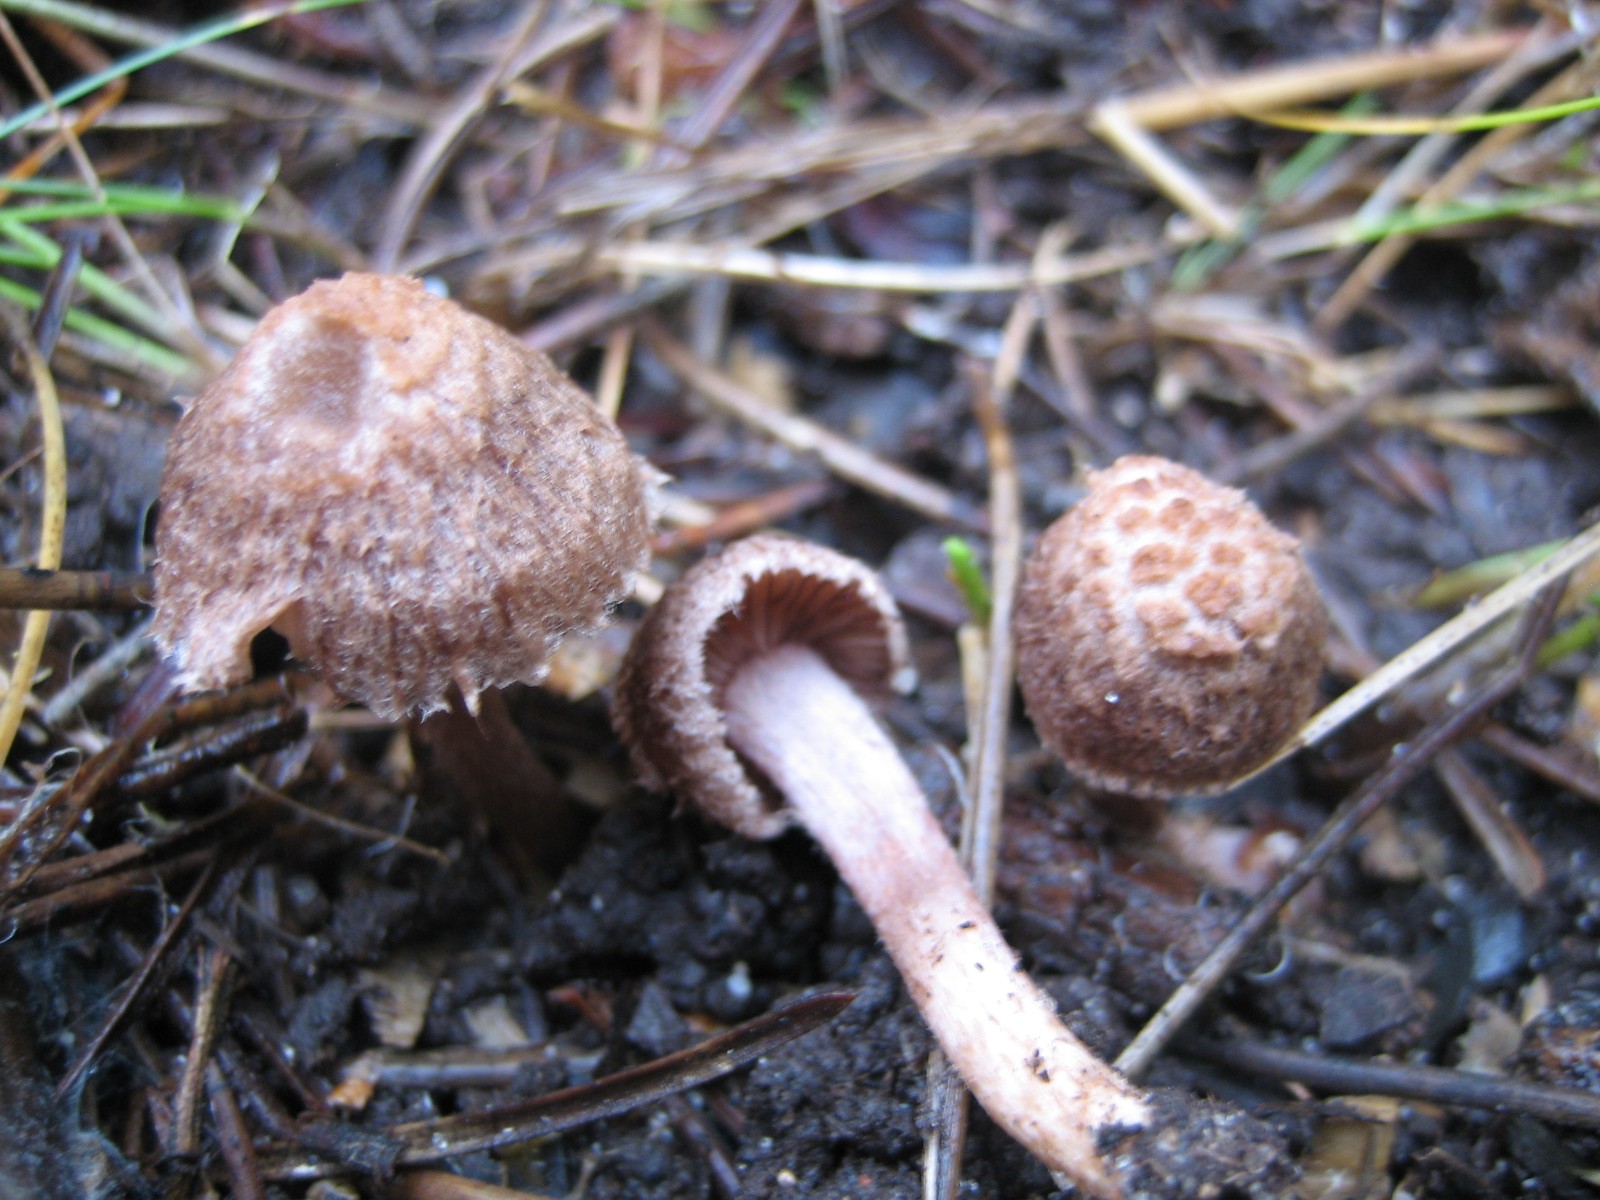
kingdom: Fungi
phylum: Basidiomycota
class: Agaricomycetes
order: Agaricales
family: Inocybaceae
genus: Inocybe
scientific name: Inocybe
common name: trævlhat
